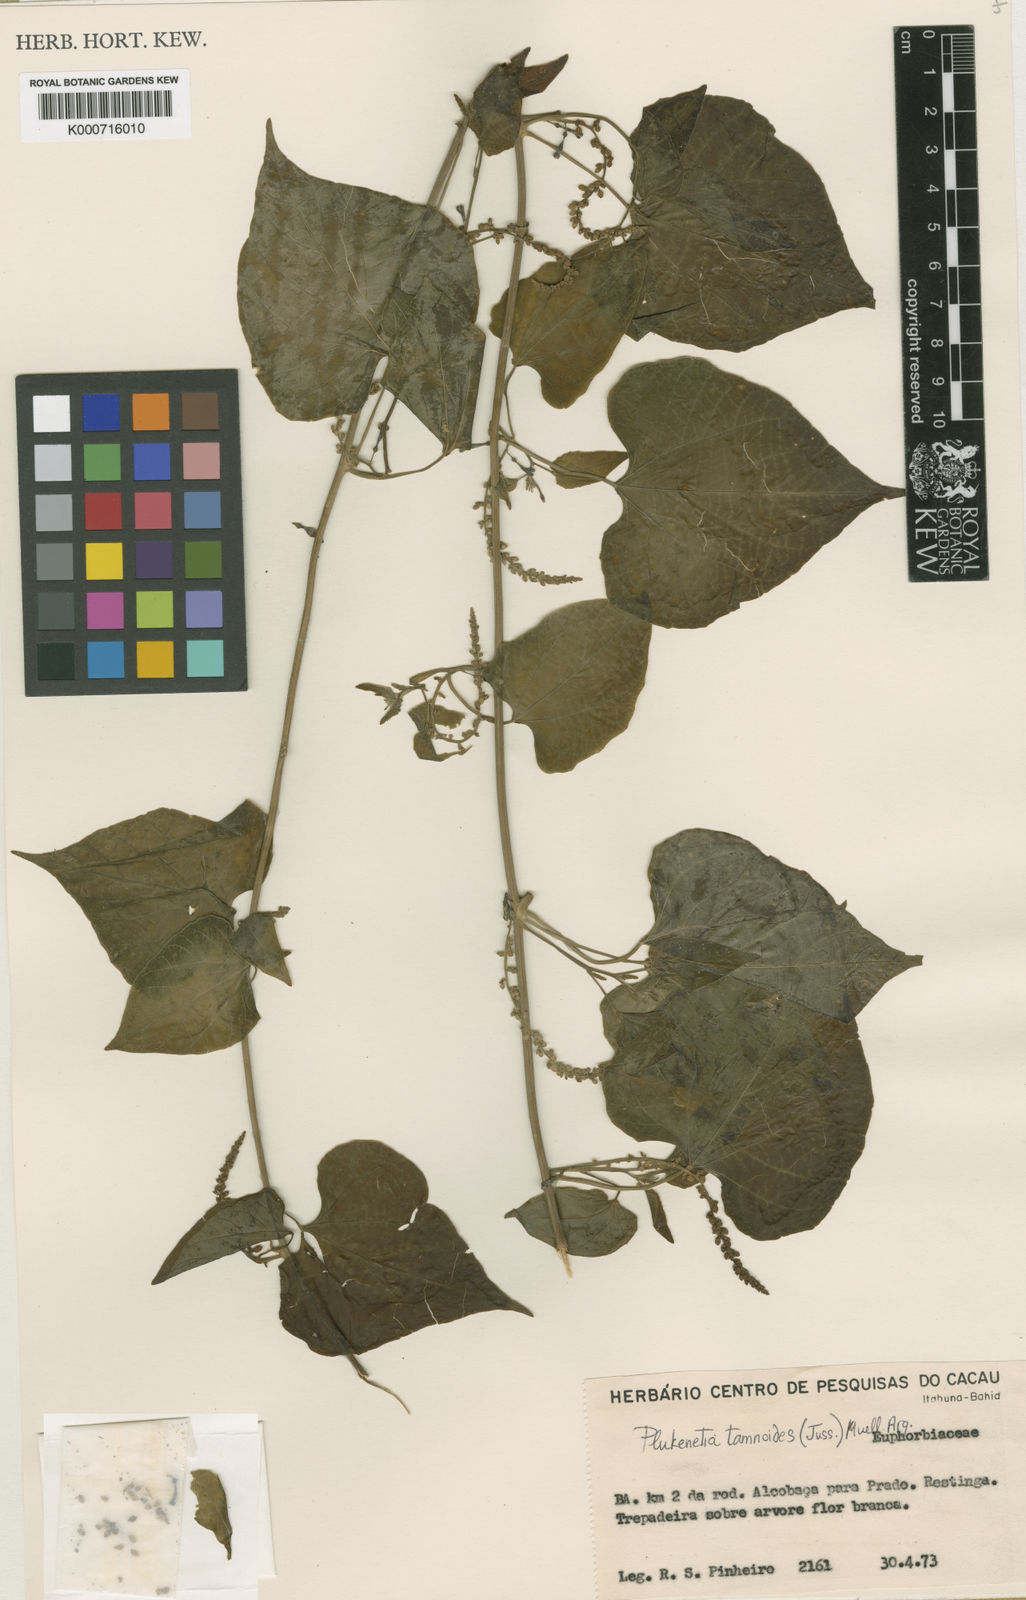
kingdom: Plantae
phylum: Tracheophyta
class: Magnoliopsida
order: Malpighiales
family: Euphorbiaceae
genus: Romanoa
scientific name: Romanoa tamnoides
